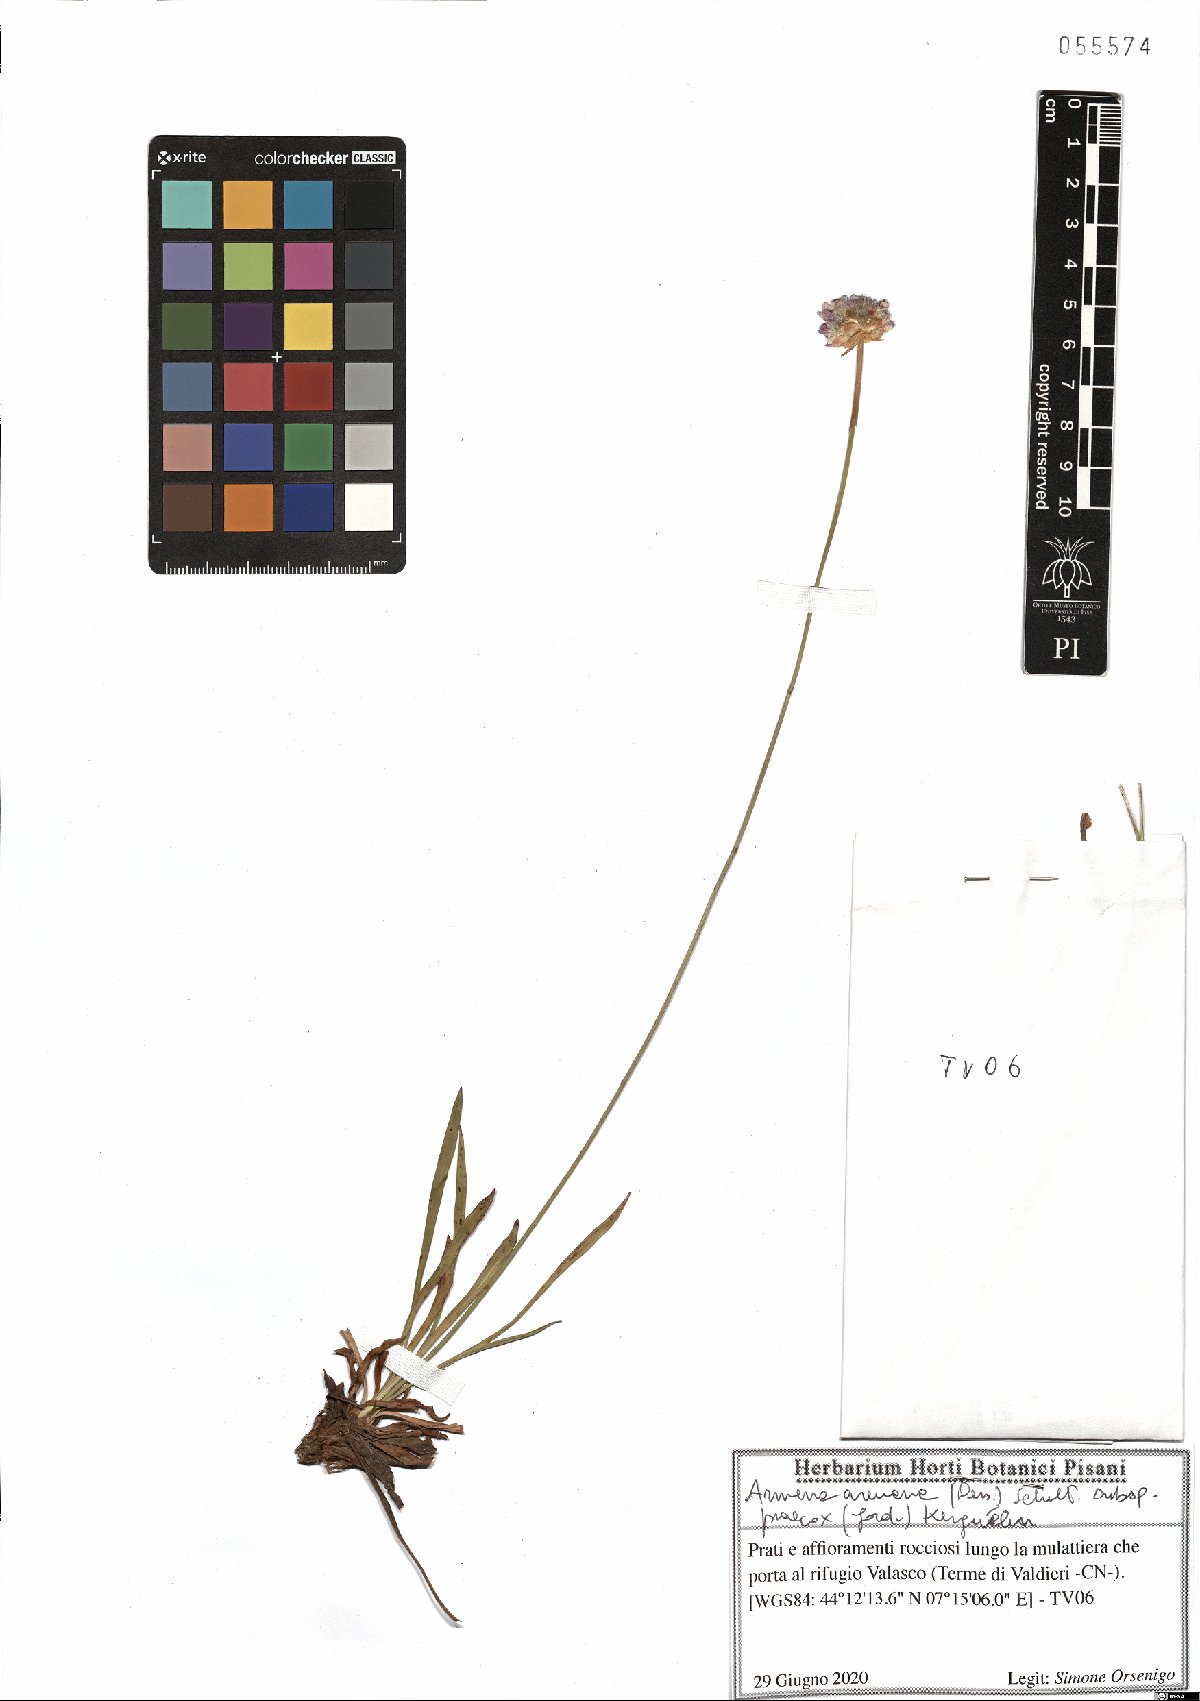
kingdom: Plantae
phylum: Tracheophyta
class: Magnoliopsida
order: Caryophyllales
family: Plumbaginaceae
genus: Armeria
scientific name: Armeria arenaria
